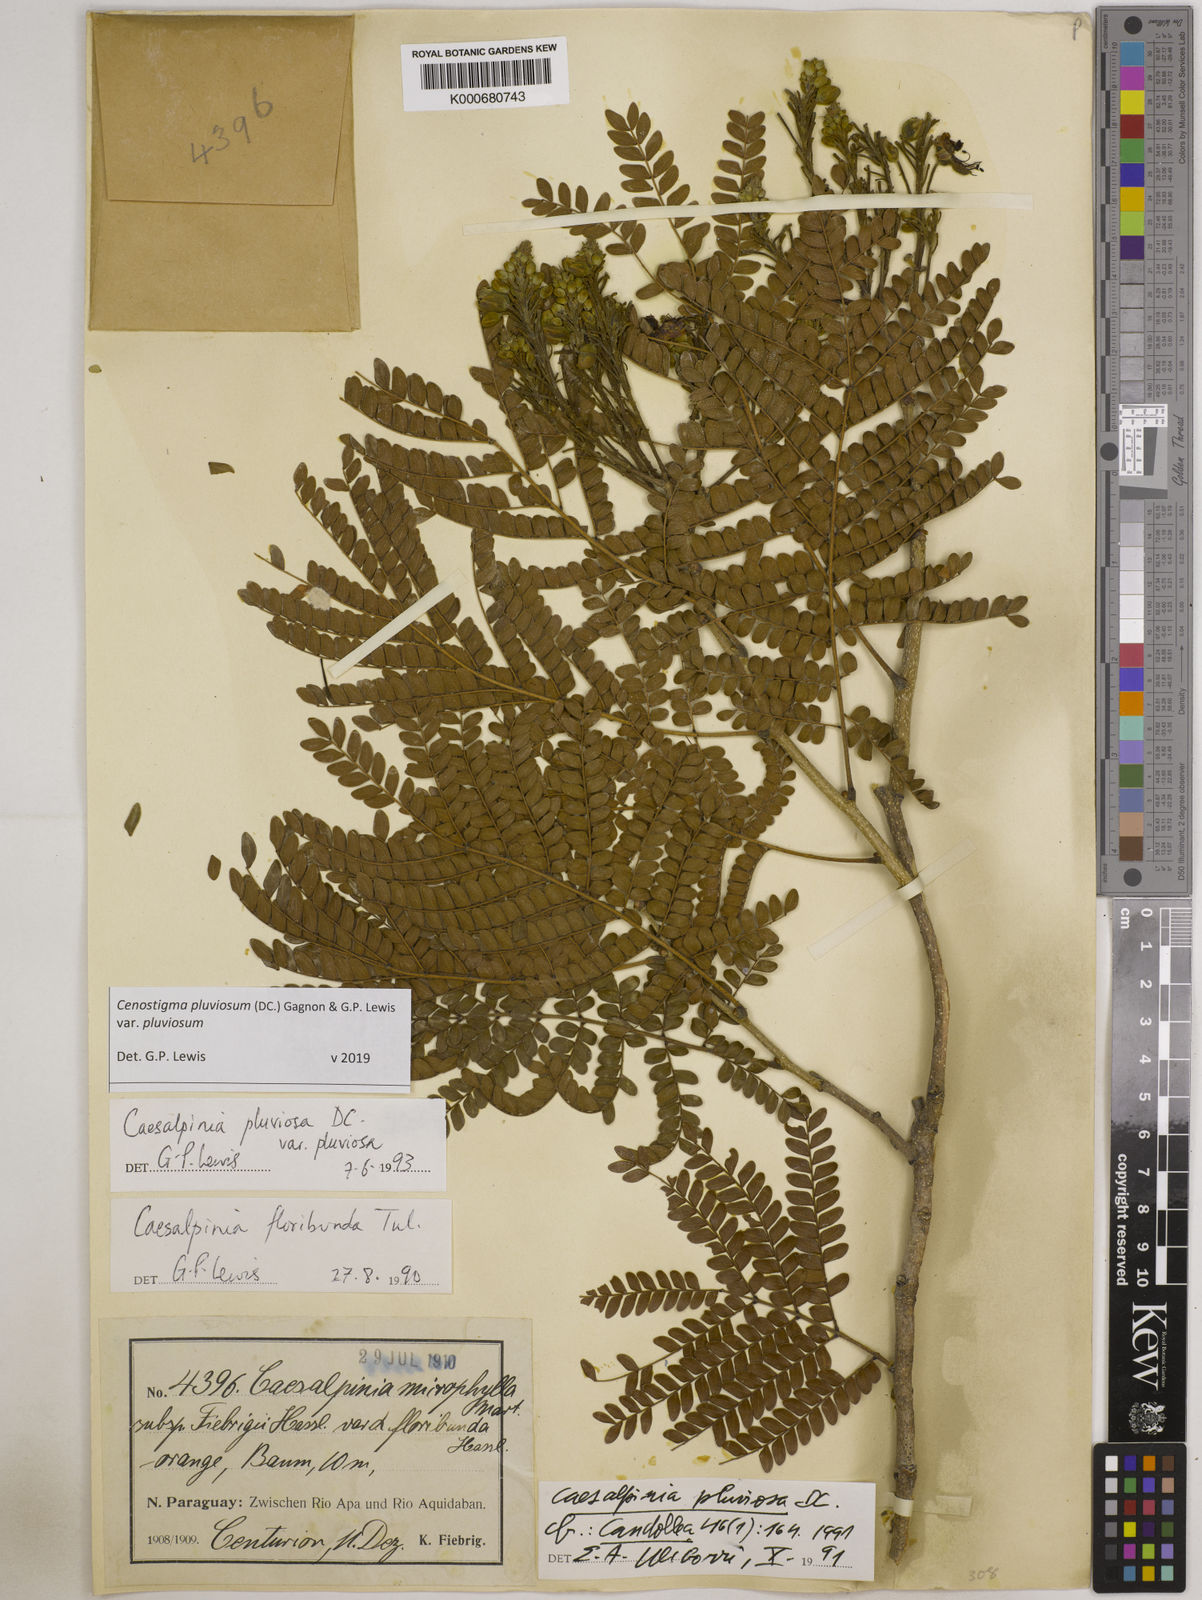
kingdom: Plantae
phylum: Tracheophyta
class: Magnoliopsida
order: Fabales
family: Fabaceae
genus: Cenostigma
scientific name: Cenostigma pluviosum
